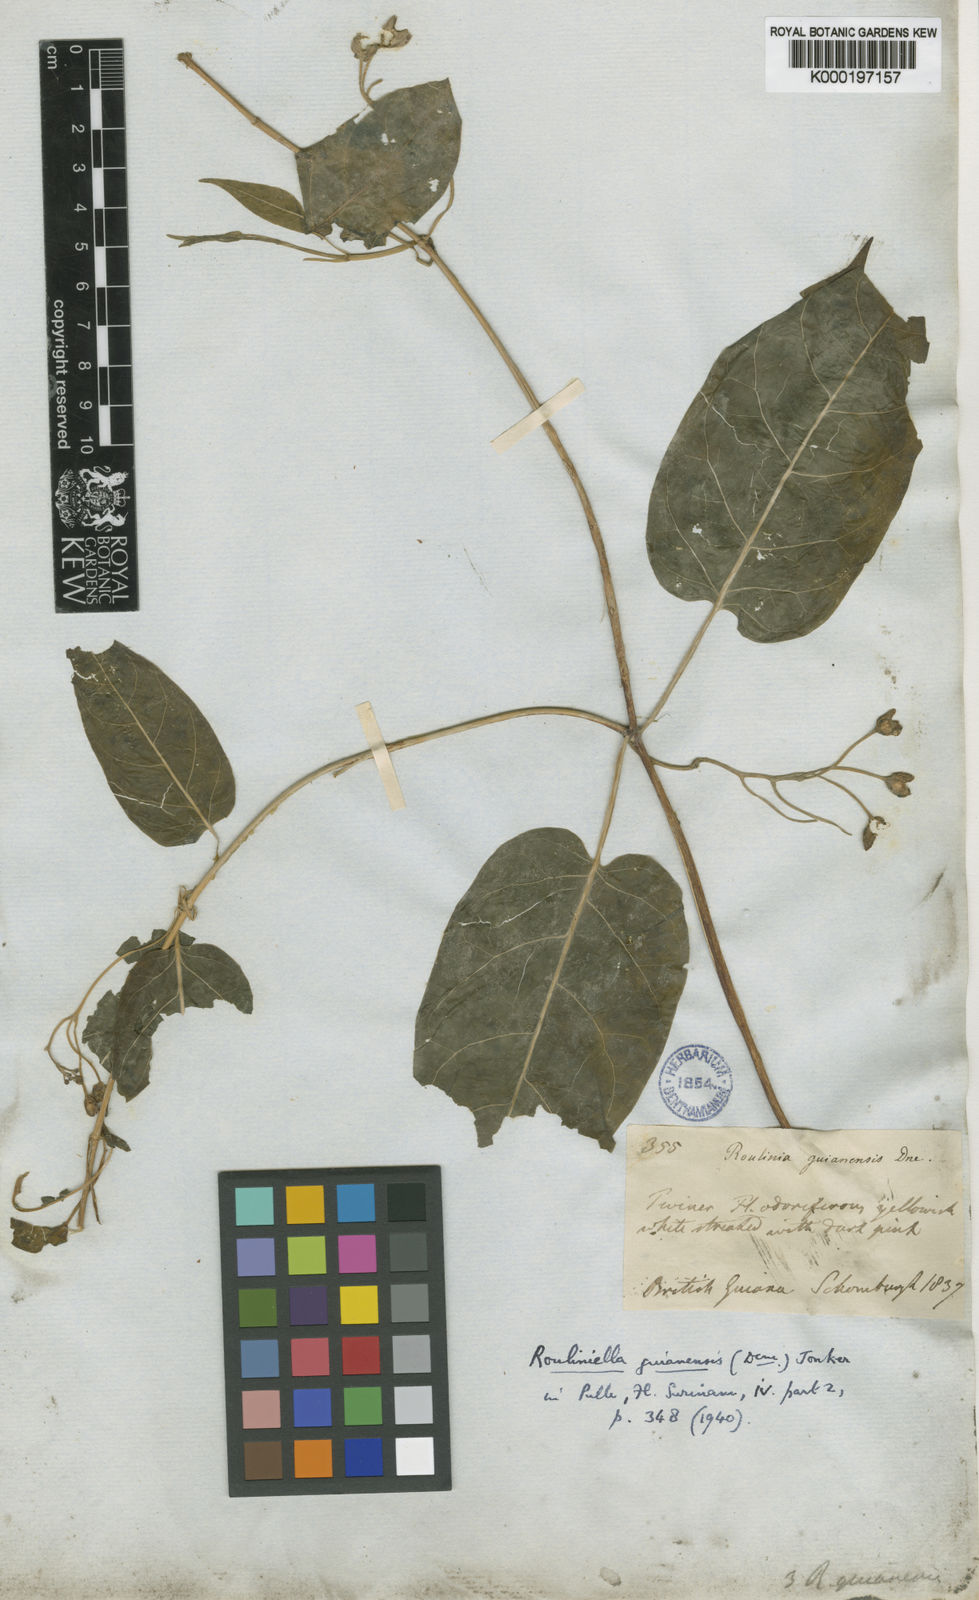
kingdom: Plantae
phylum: Tracheophyta
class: Magnoliopsida
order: Gentianales
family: Apocynaceae
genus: Cynanchum
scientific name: Cynanchum blandum
